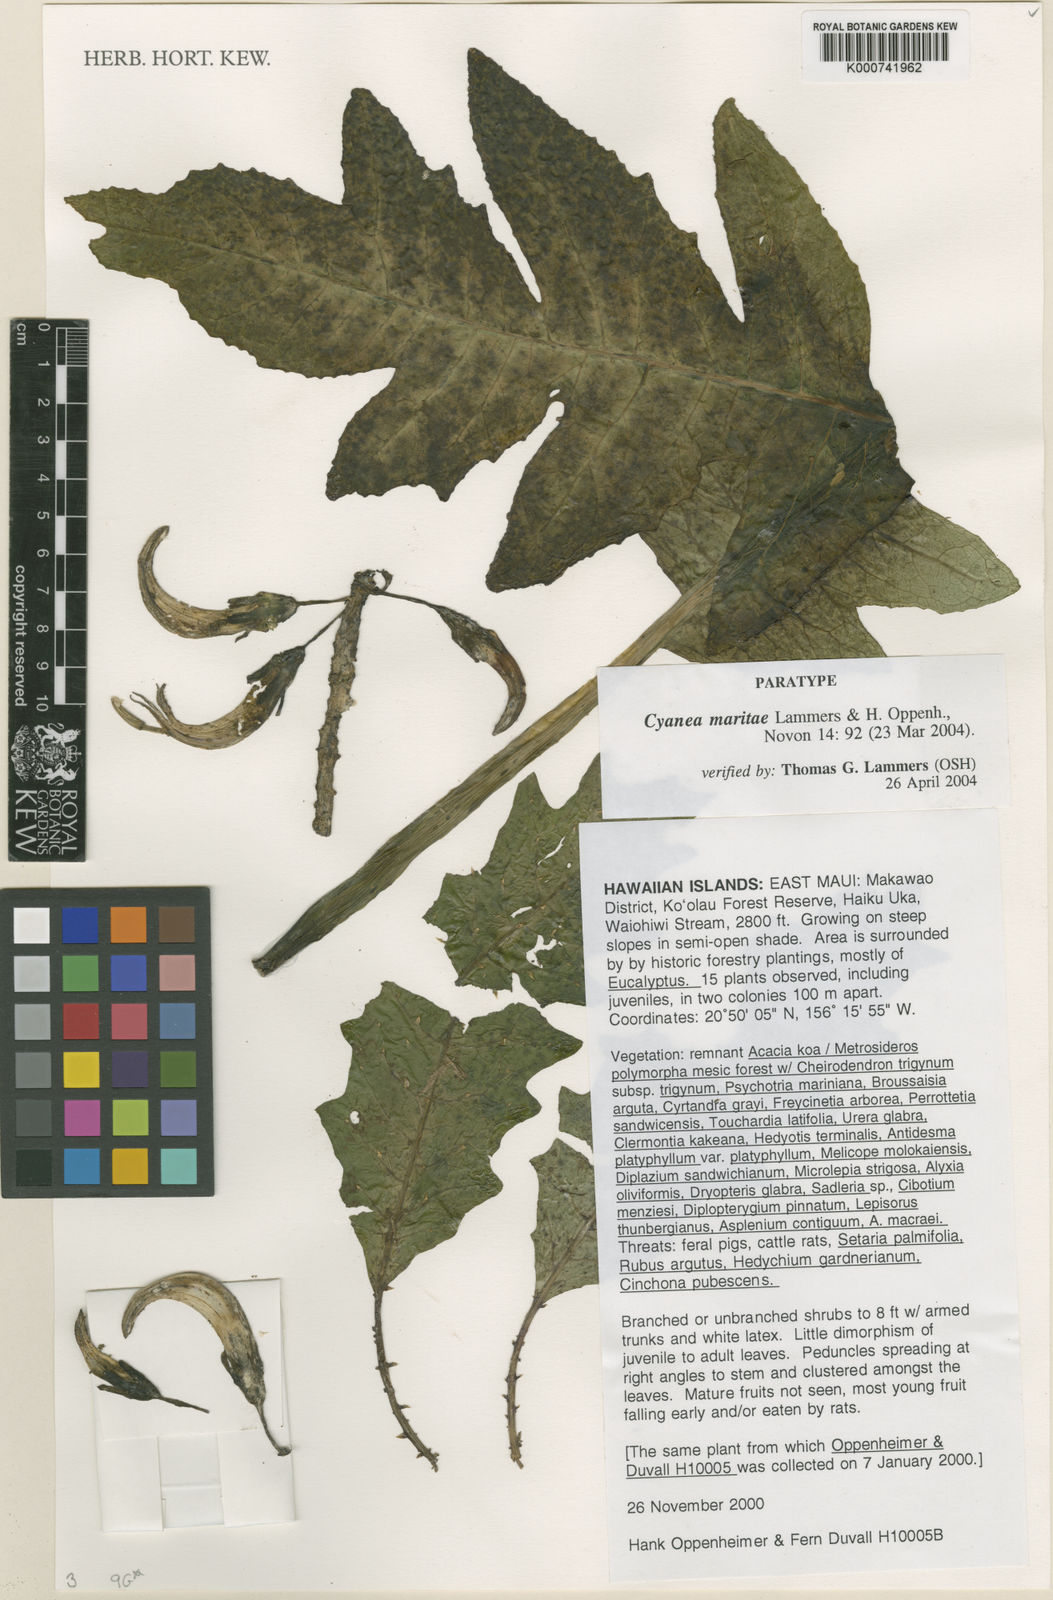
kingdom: Plantae
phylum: Tracheophyta
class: Magnoliopsida
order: Asterales
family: Campanulaceae
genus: Cyanea
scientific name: Cyanea maritae
